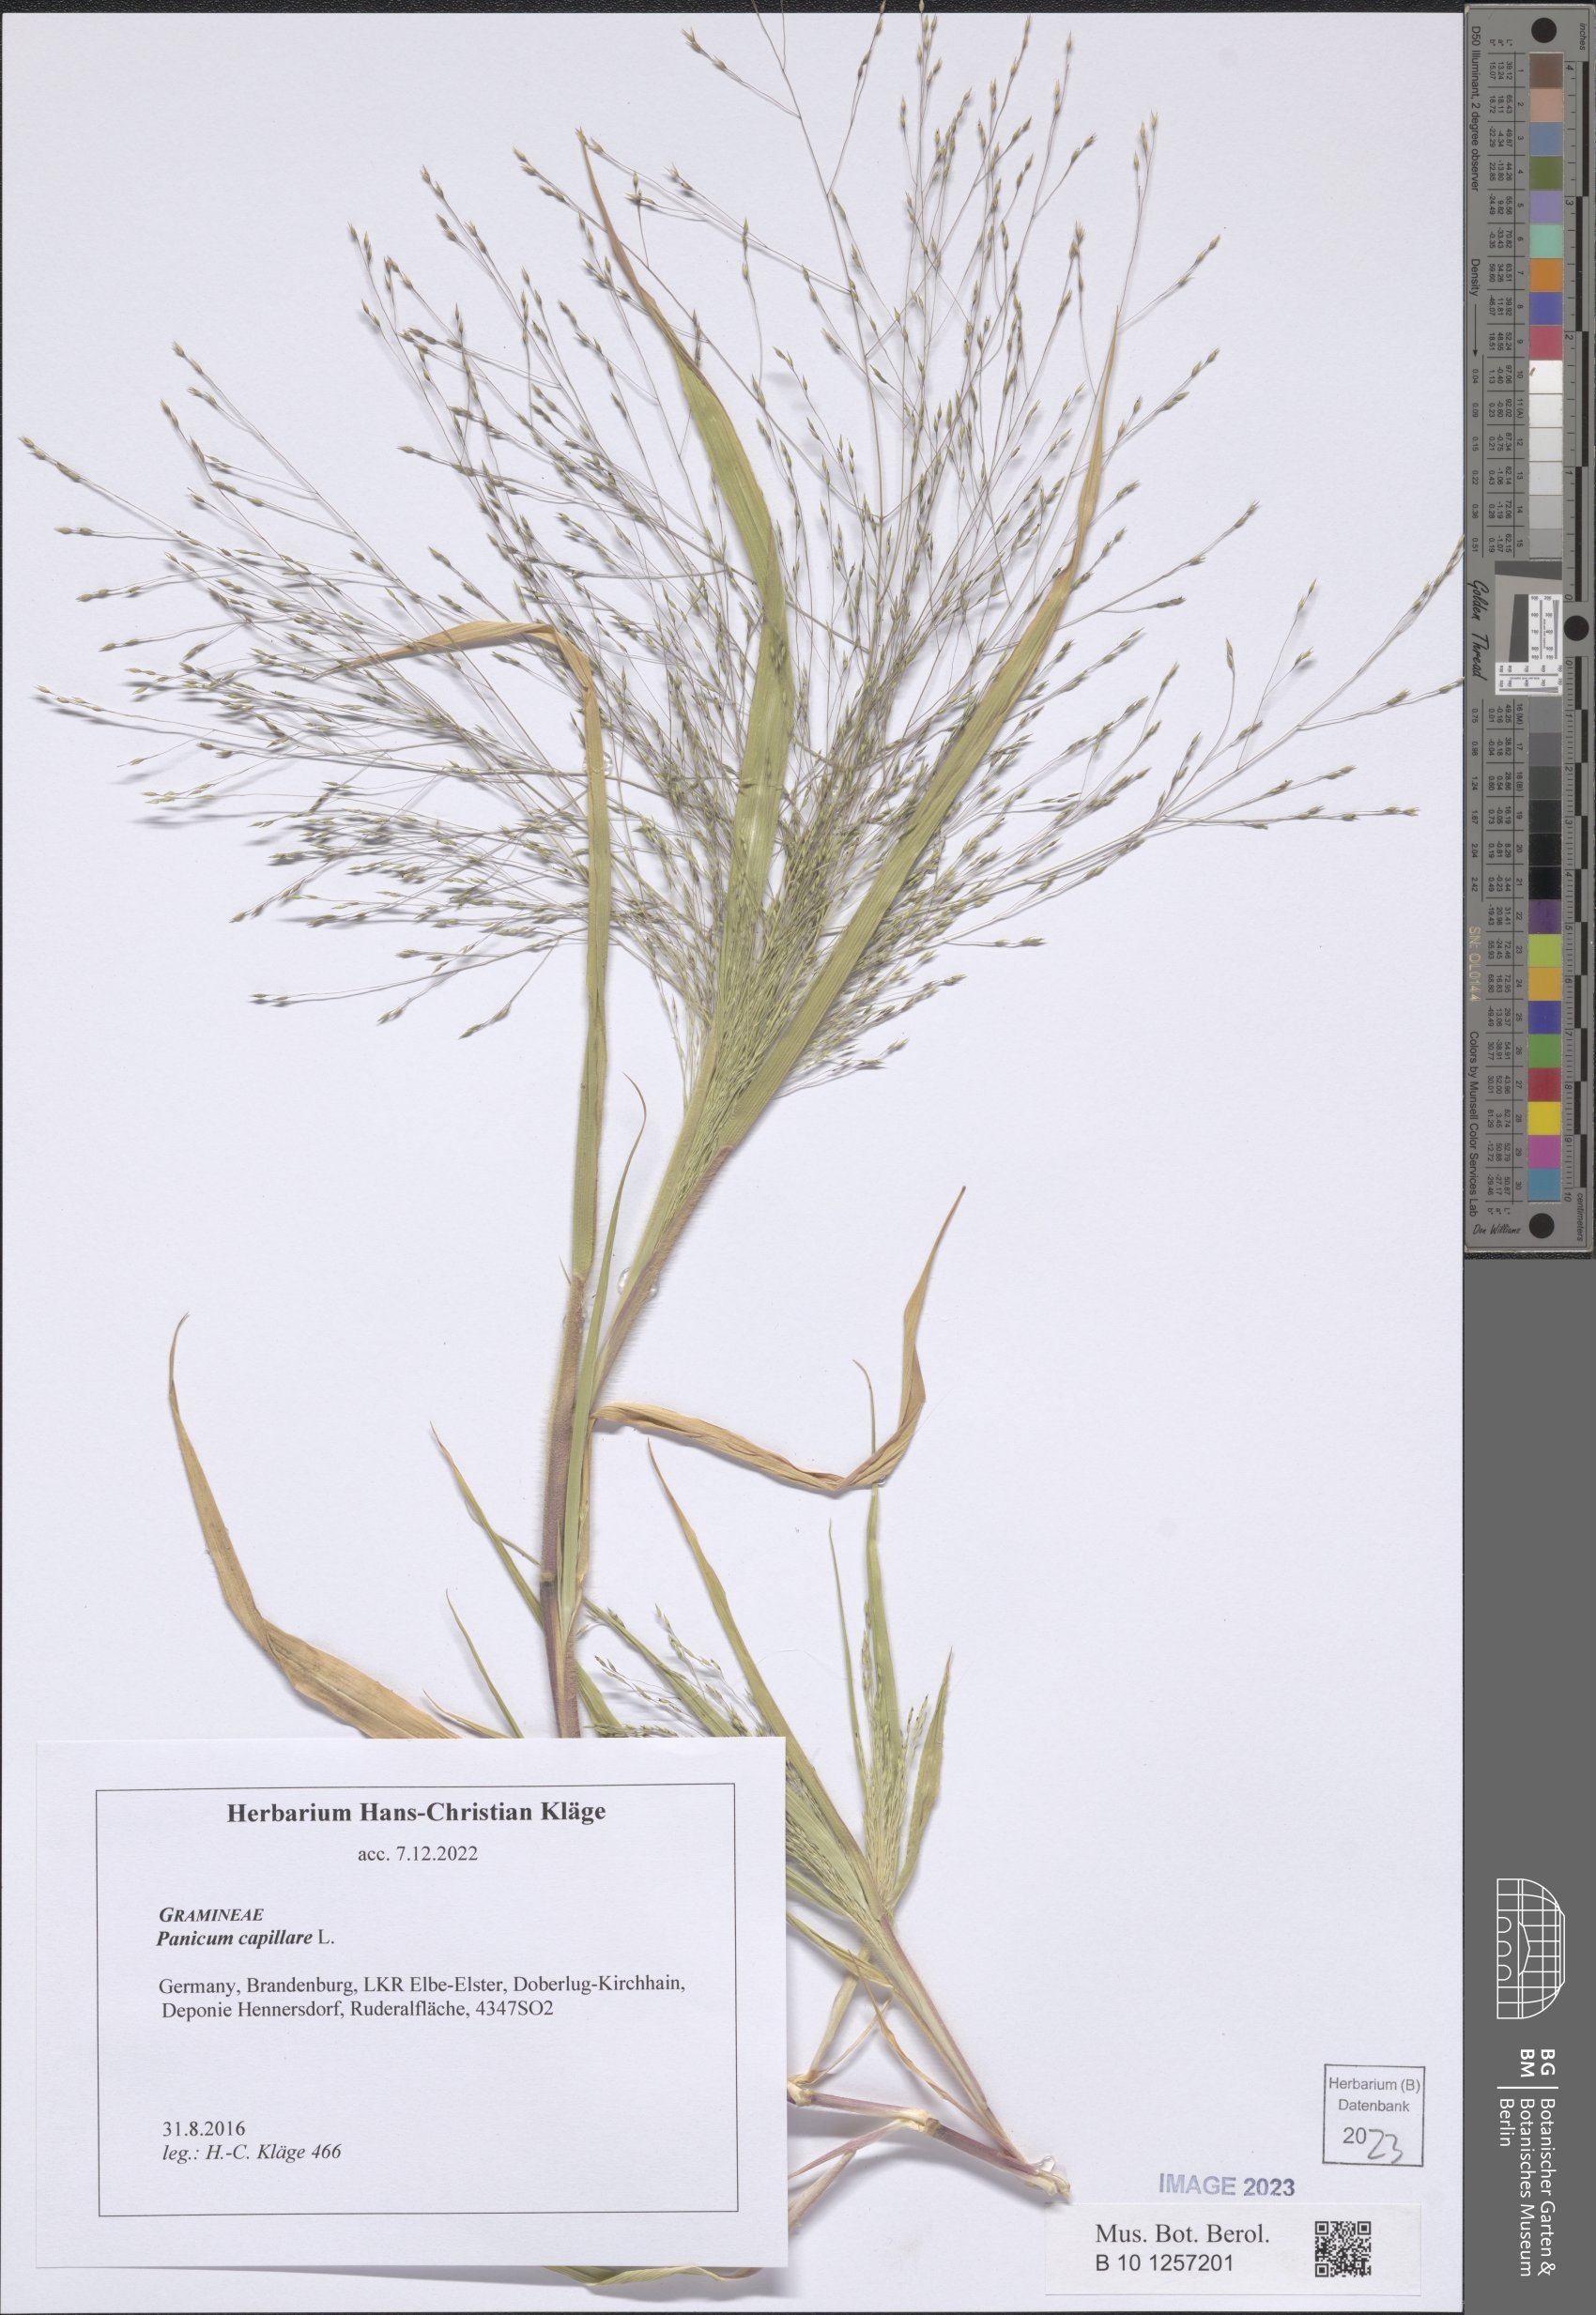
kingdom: Plantae
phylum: Tracheophyta
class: Liliopsida
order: Poales
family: Poaceae
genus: Panicum
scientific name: Panicum capillare
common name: Witch-grass
